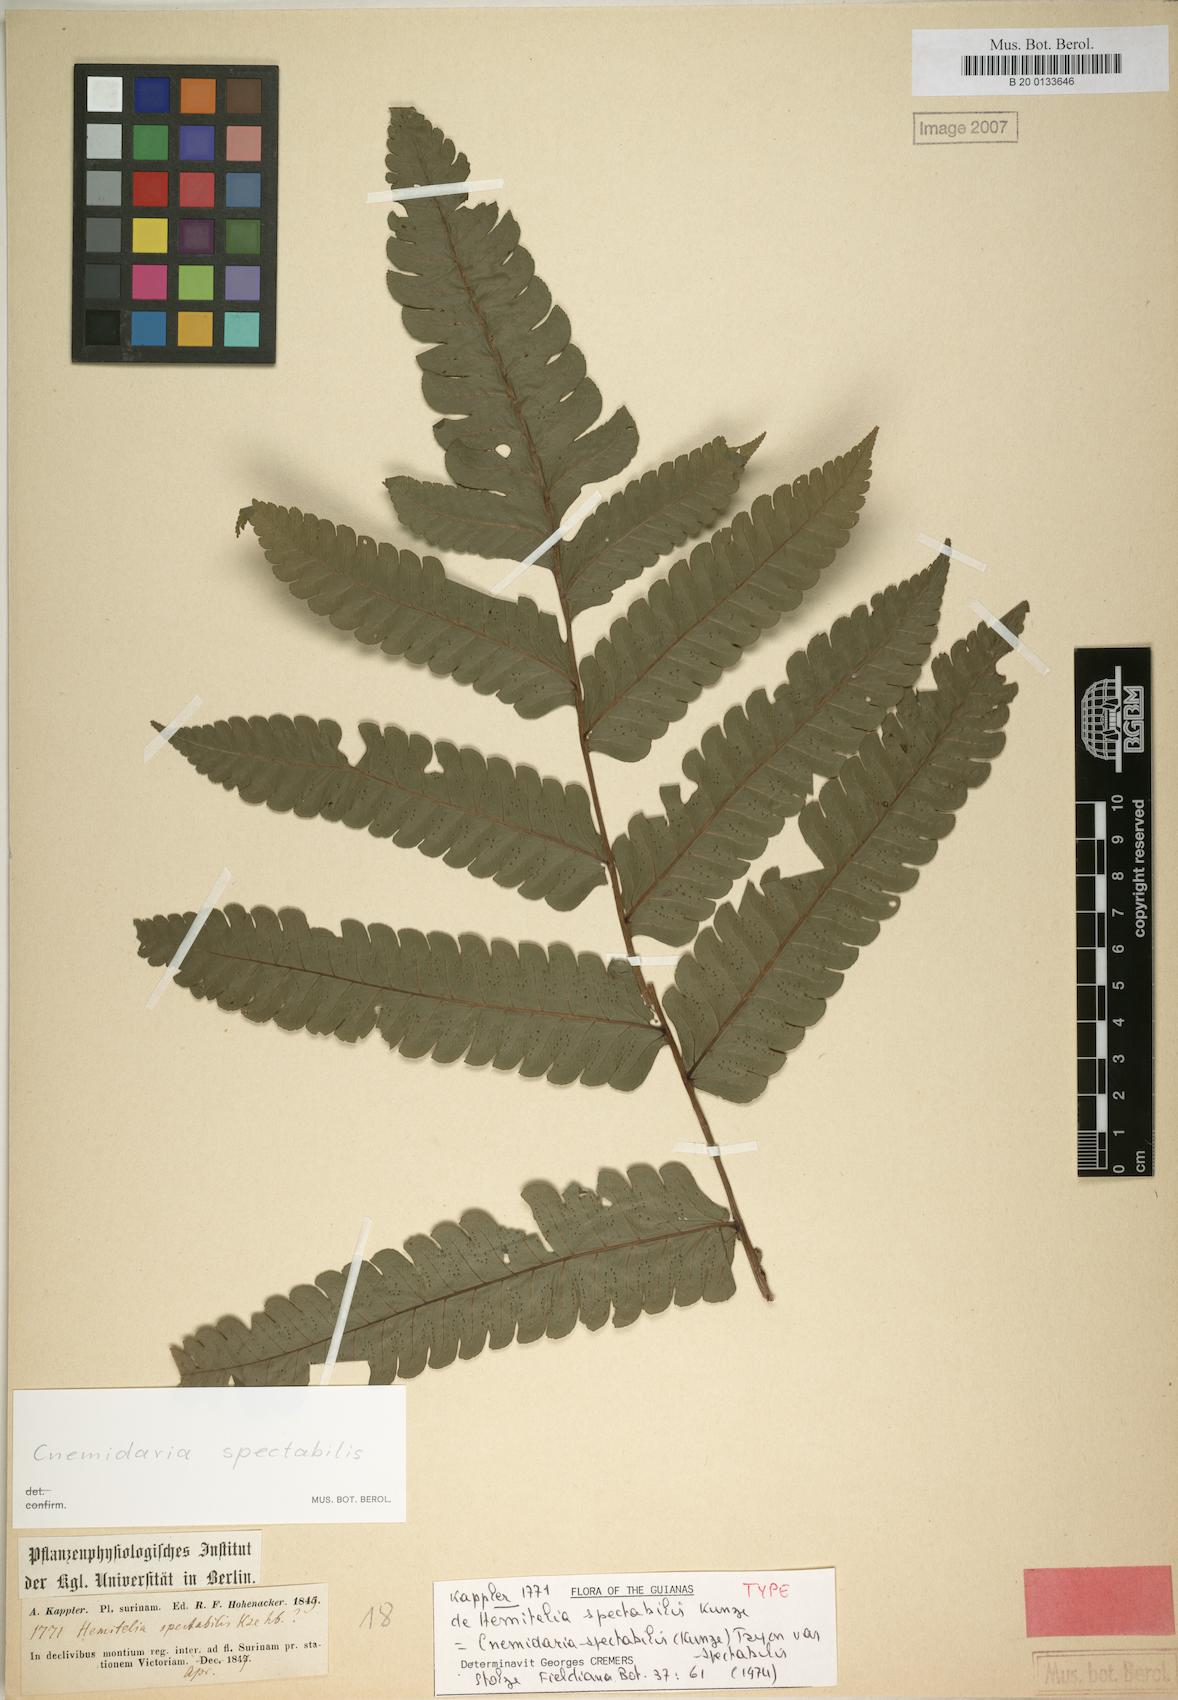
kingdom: Plantae
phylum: Tracheophyta
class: Polypodiopsida
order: Cyatheales
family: Cyatheaceae
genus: Cyathea
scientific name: Cyathea spectabilis
